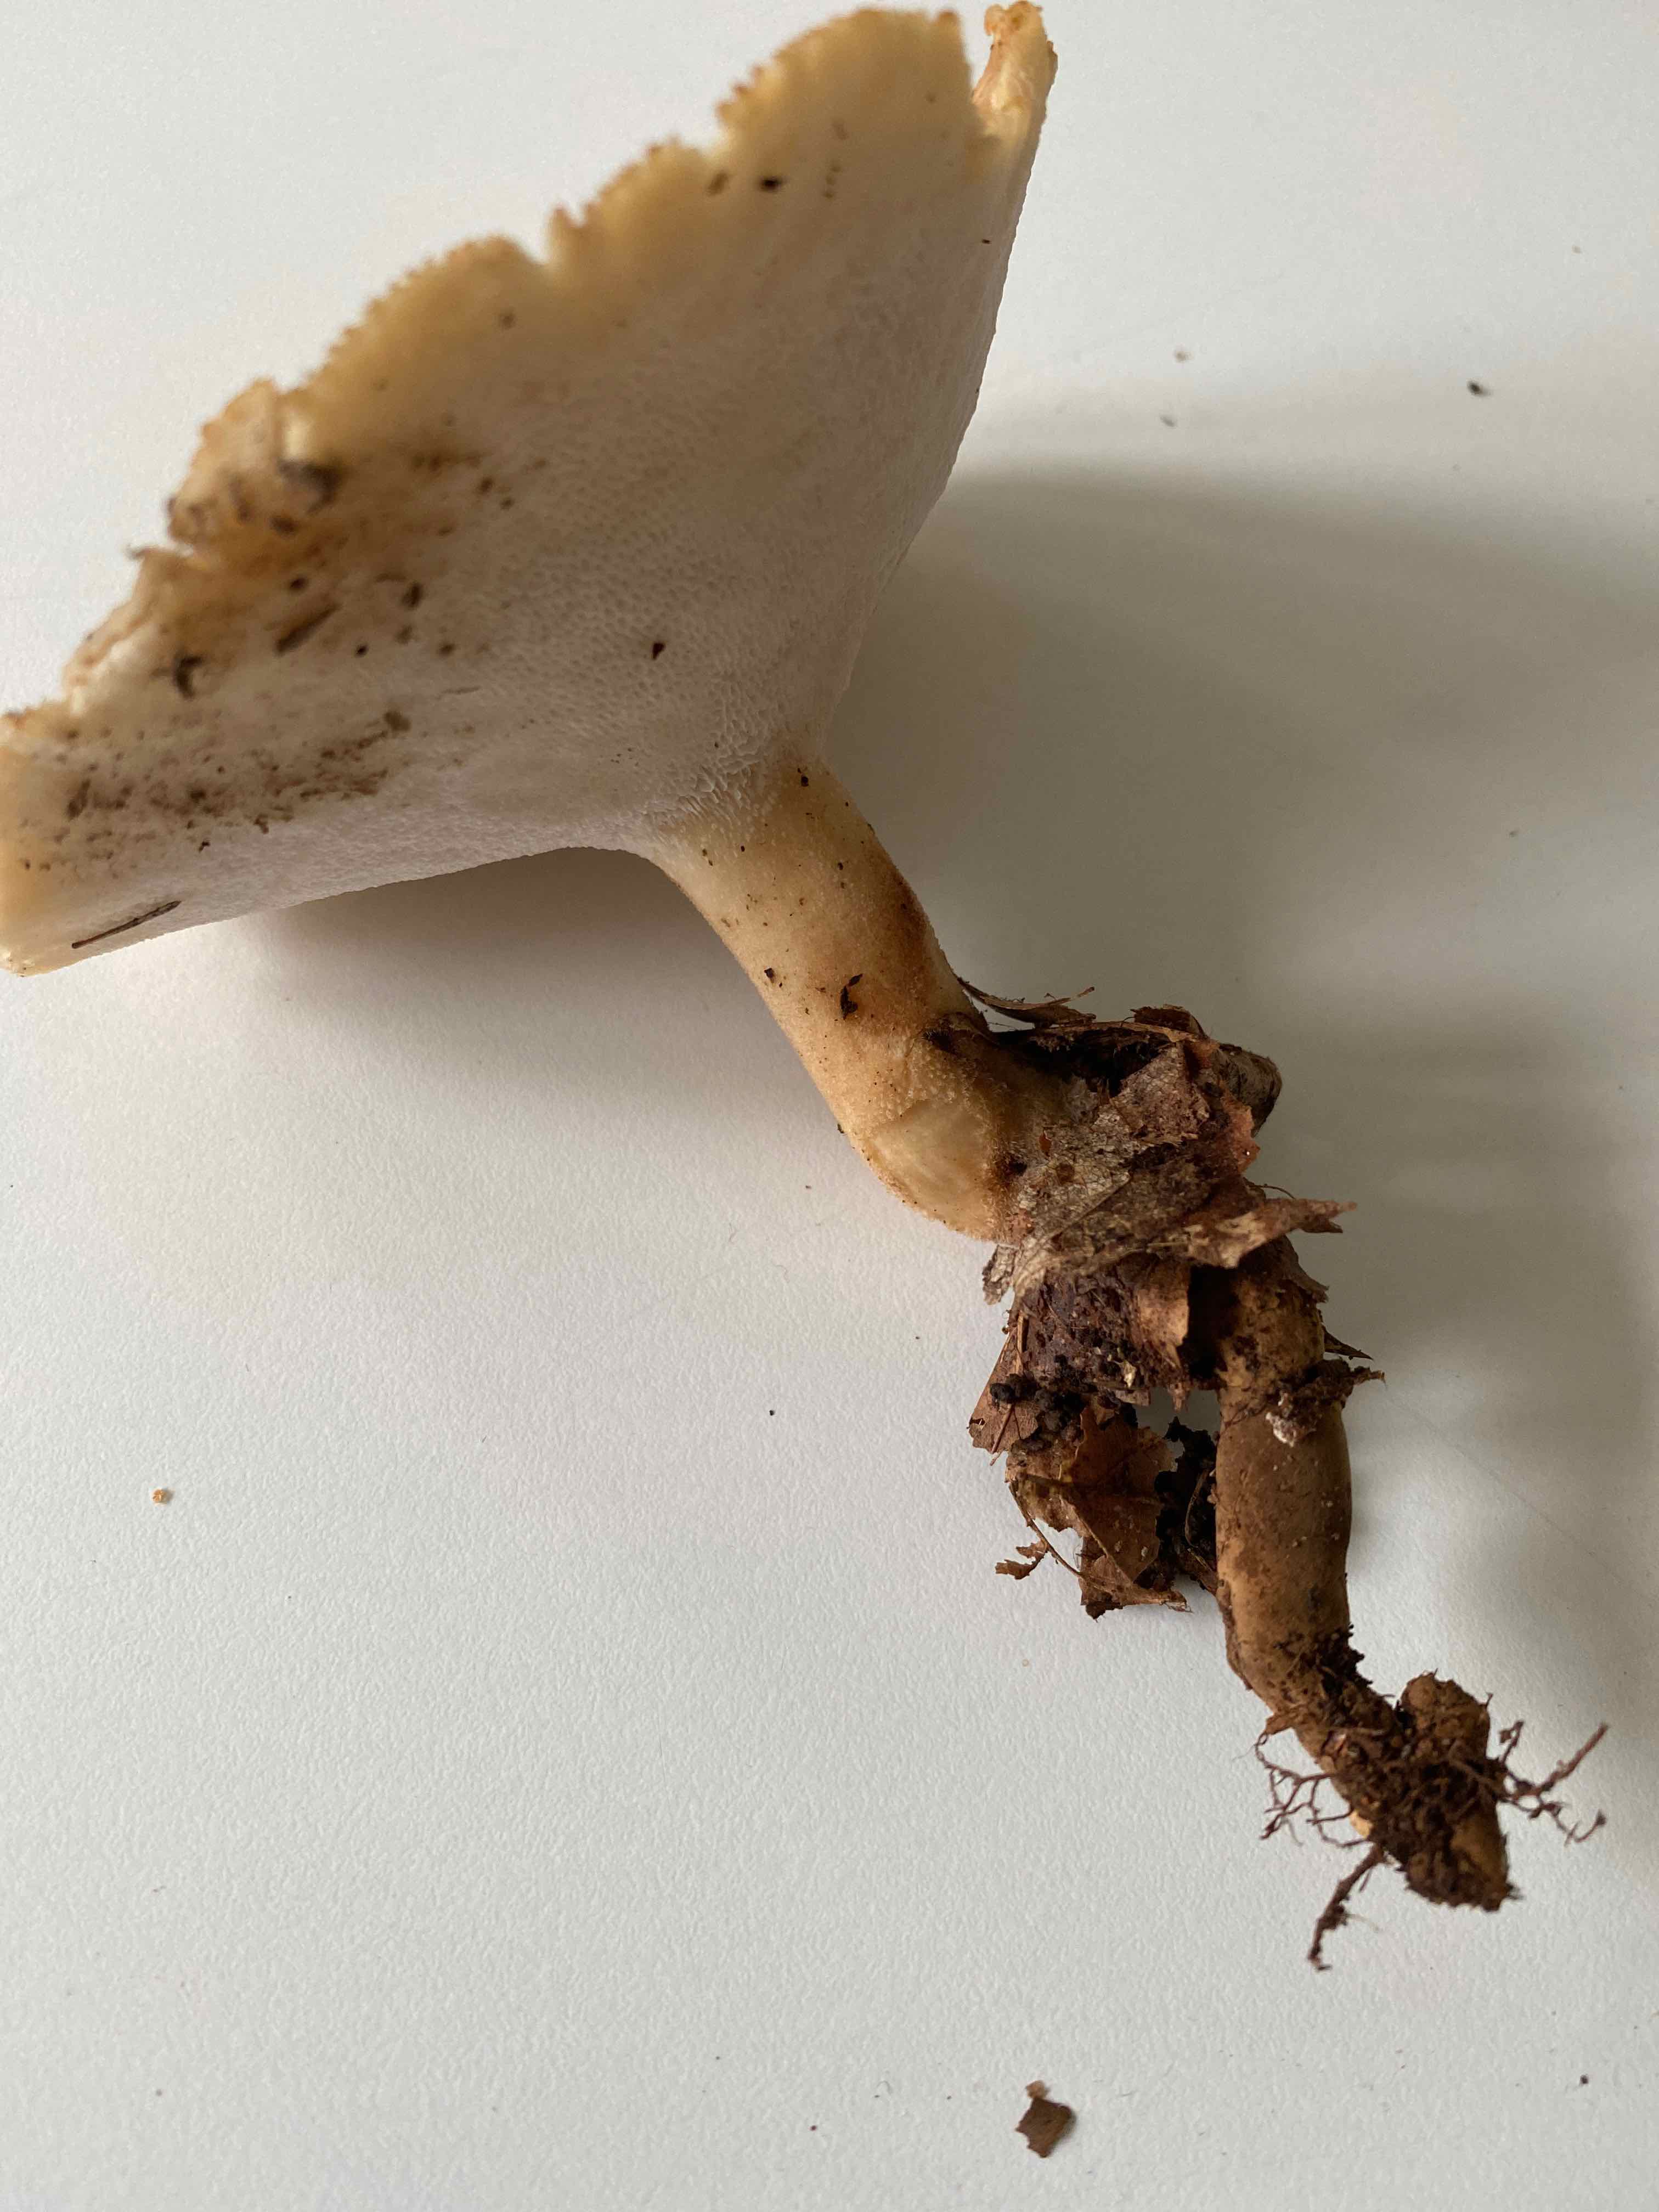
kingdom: Fungi
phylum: Basidiomycota
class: Agaricomycetes
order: Polyporales
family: Polyporaceae
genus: Polyporus
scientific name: Polyporus tuberaster
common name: knoldet stilkporesvamp
